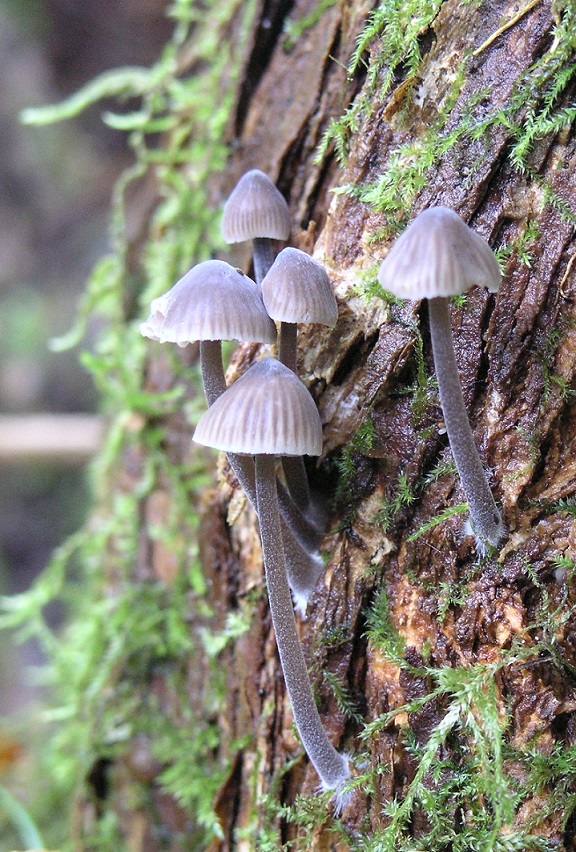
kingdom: Fungi
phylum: Basidiomycota
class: Agaricomycetes
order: Agaricales
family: Mycenaceae
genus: Mycena
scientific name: Mycena leptocephala
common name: klor-huesvamp
